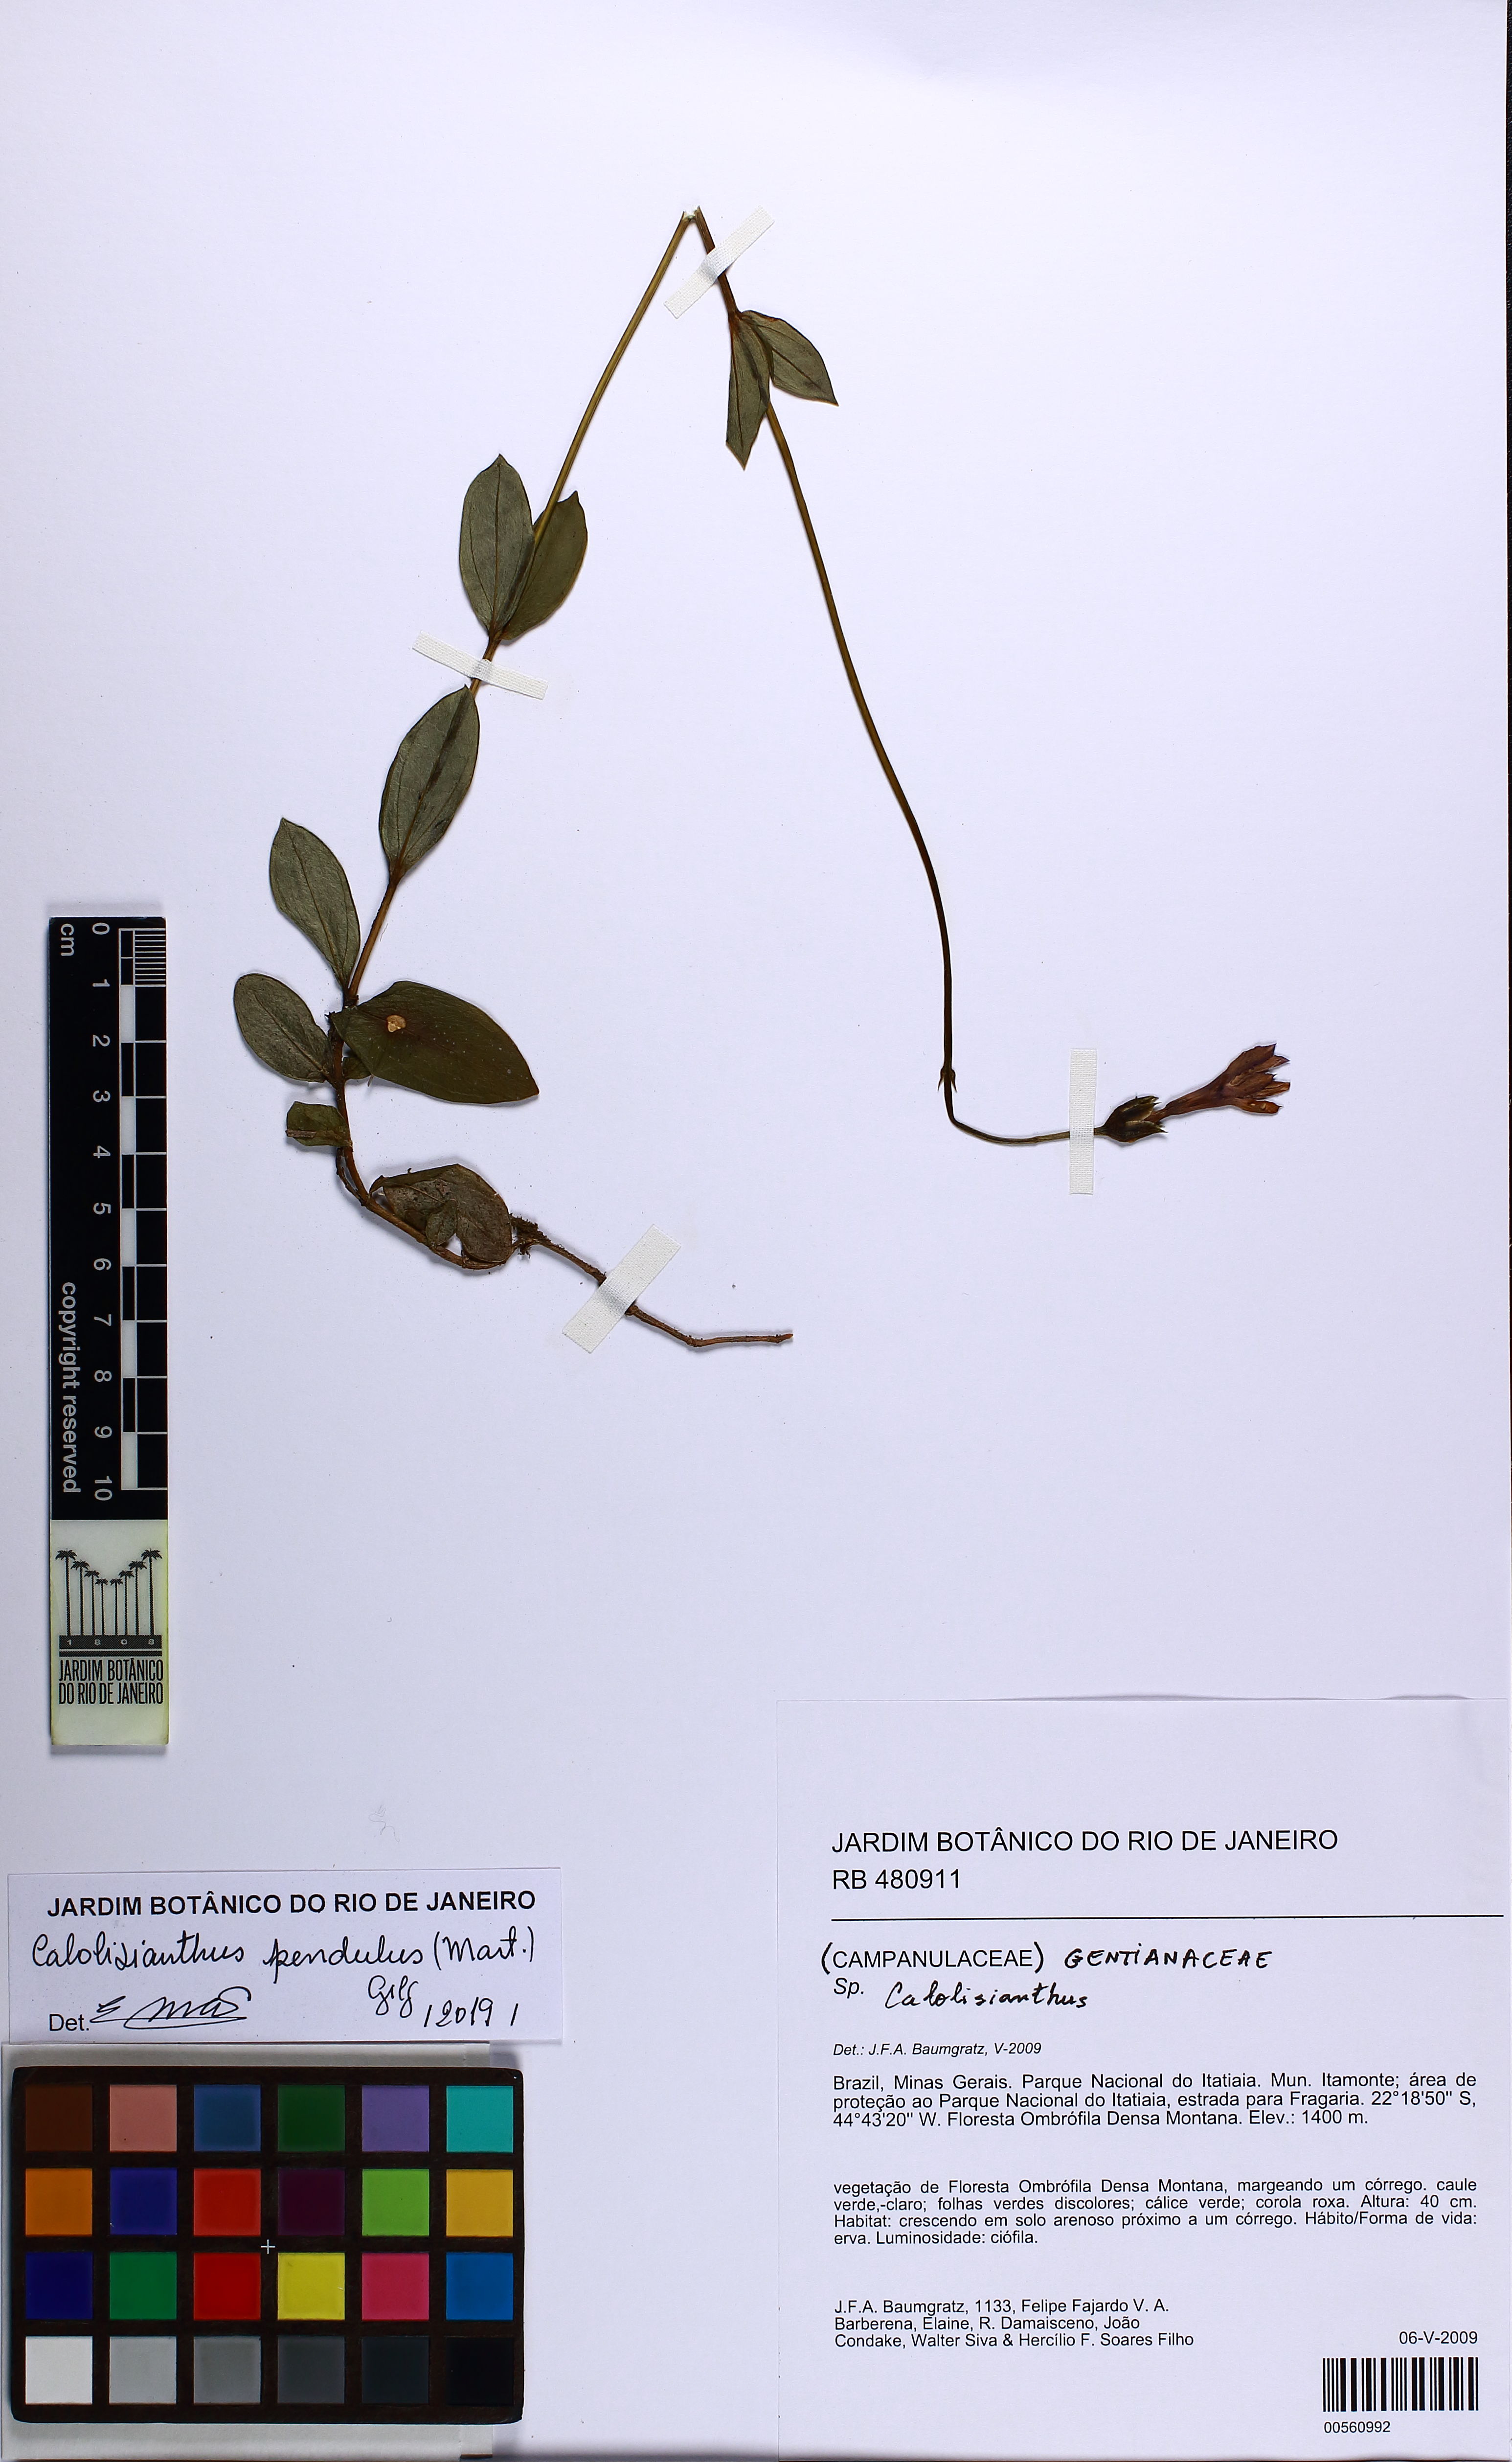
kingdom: Plantae
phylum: Tracheophyta
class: Magnoliopsida
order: Gentianales
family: Gentianaceae
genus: Calolisianthus
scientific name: Calolisianthus pendulus
